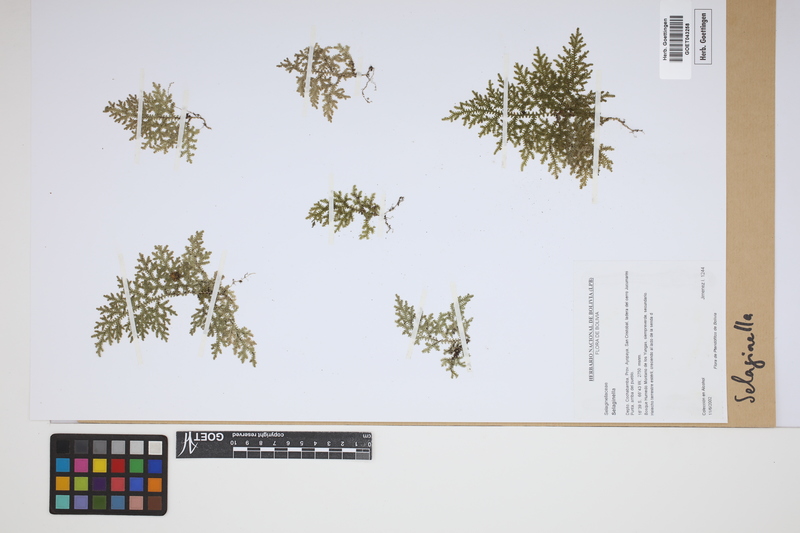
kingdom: Plantae
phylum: Tracheophyta
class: Lycopodiopsida
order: Selaginellales
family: Selaginellaceae
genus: Selaginella
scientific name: Selaginella
